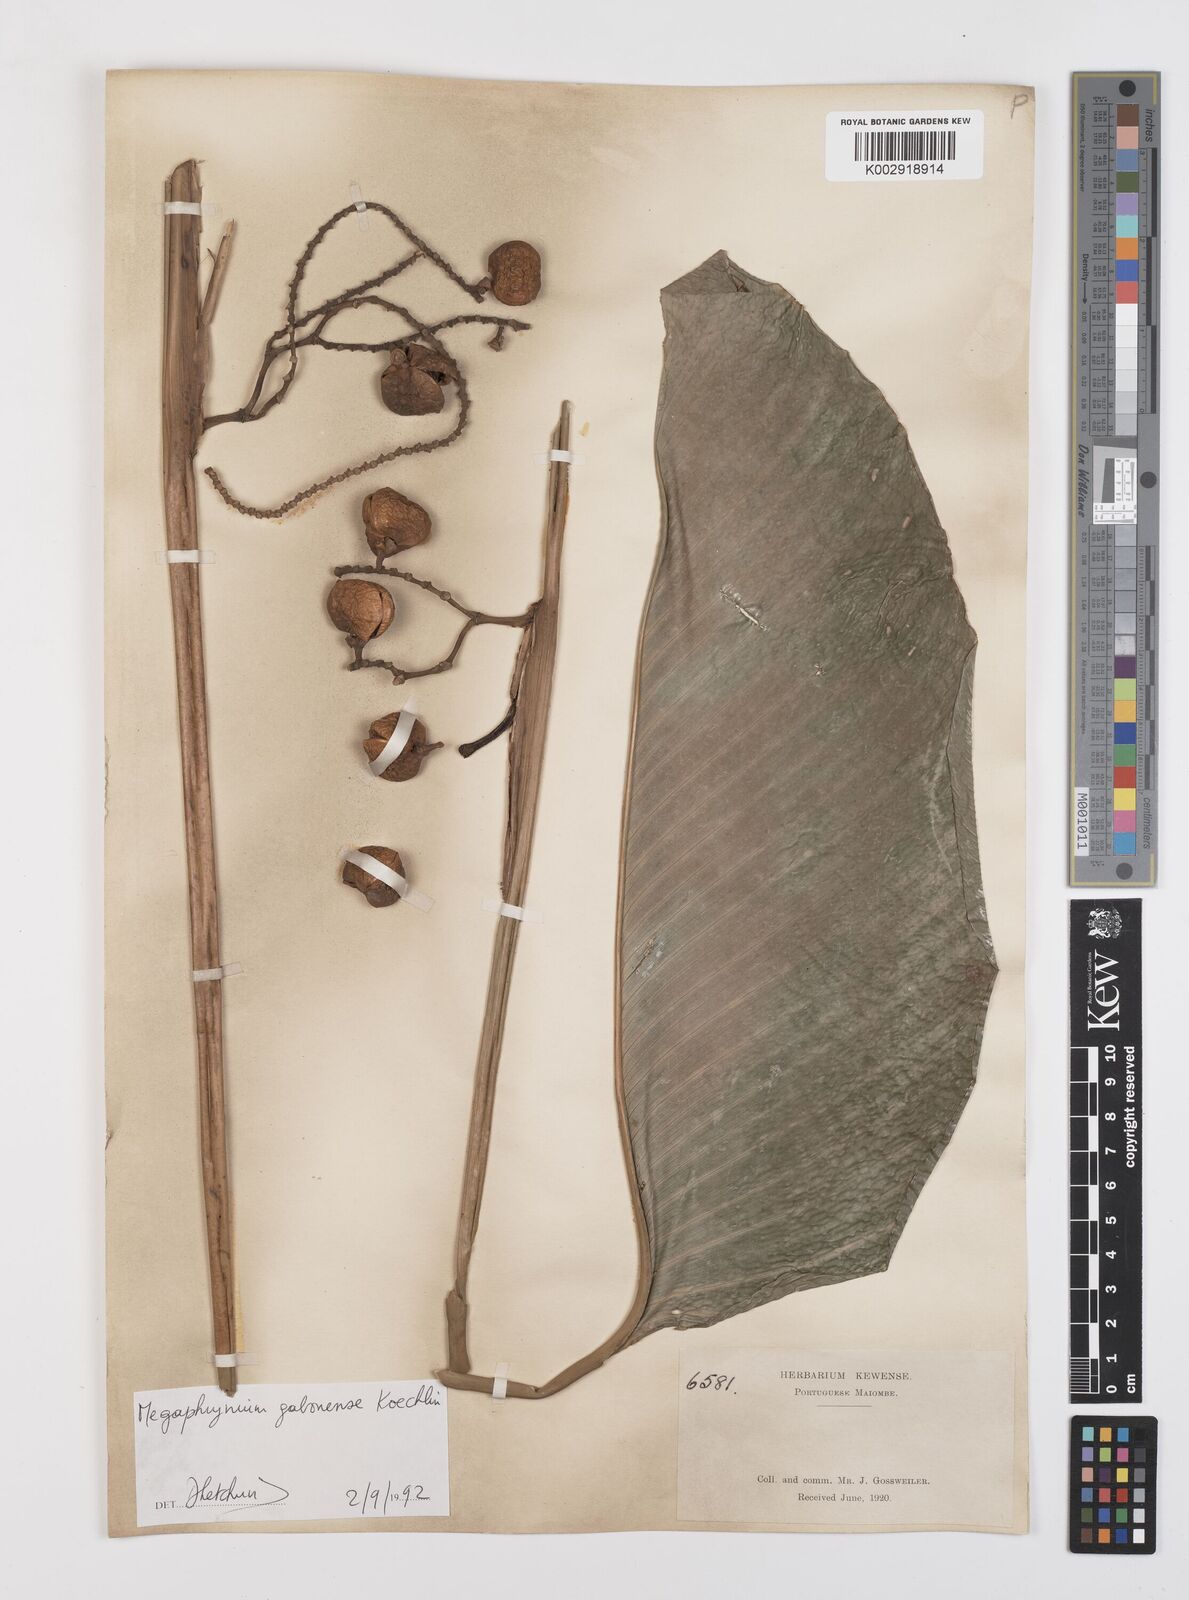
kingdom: Plantae
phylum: Tracheophyta
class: Liliopsida
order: Zingiberales
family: Marantaceae
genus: Megaphrynium
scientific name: Megaphrynium macrostachyum
